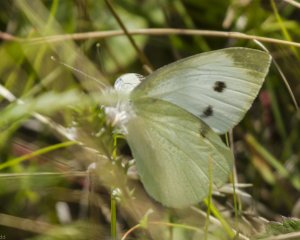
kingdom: Animalia
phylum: Arthropoda
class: Insecta
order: Lepidoptera
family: Pieridae
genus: Pieris
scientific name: Pieris rapae
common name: Cabbage White
